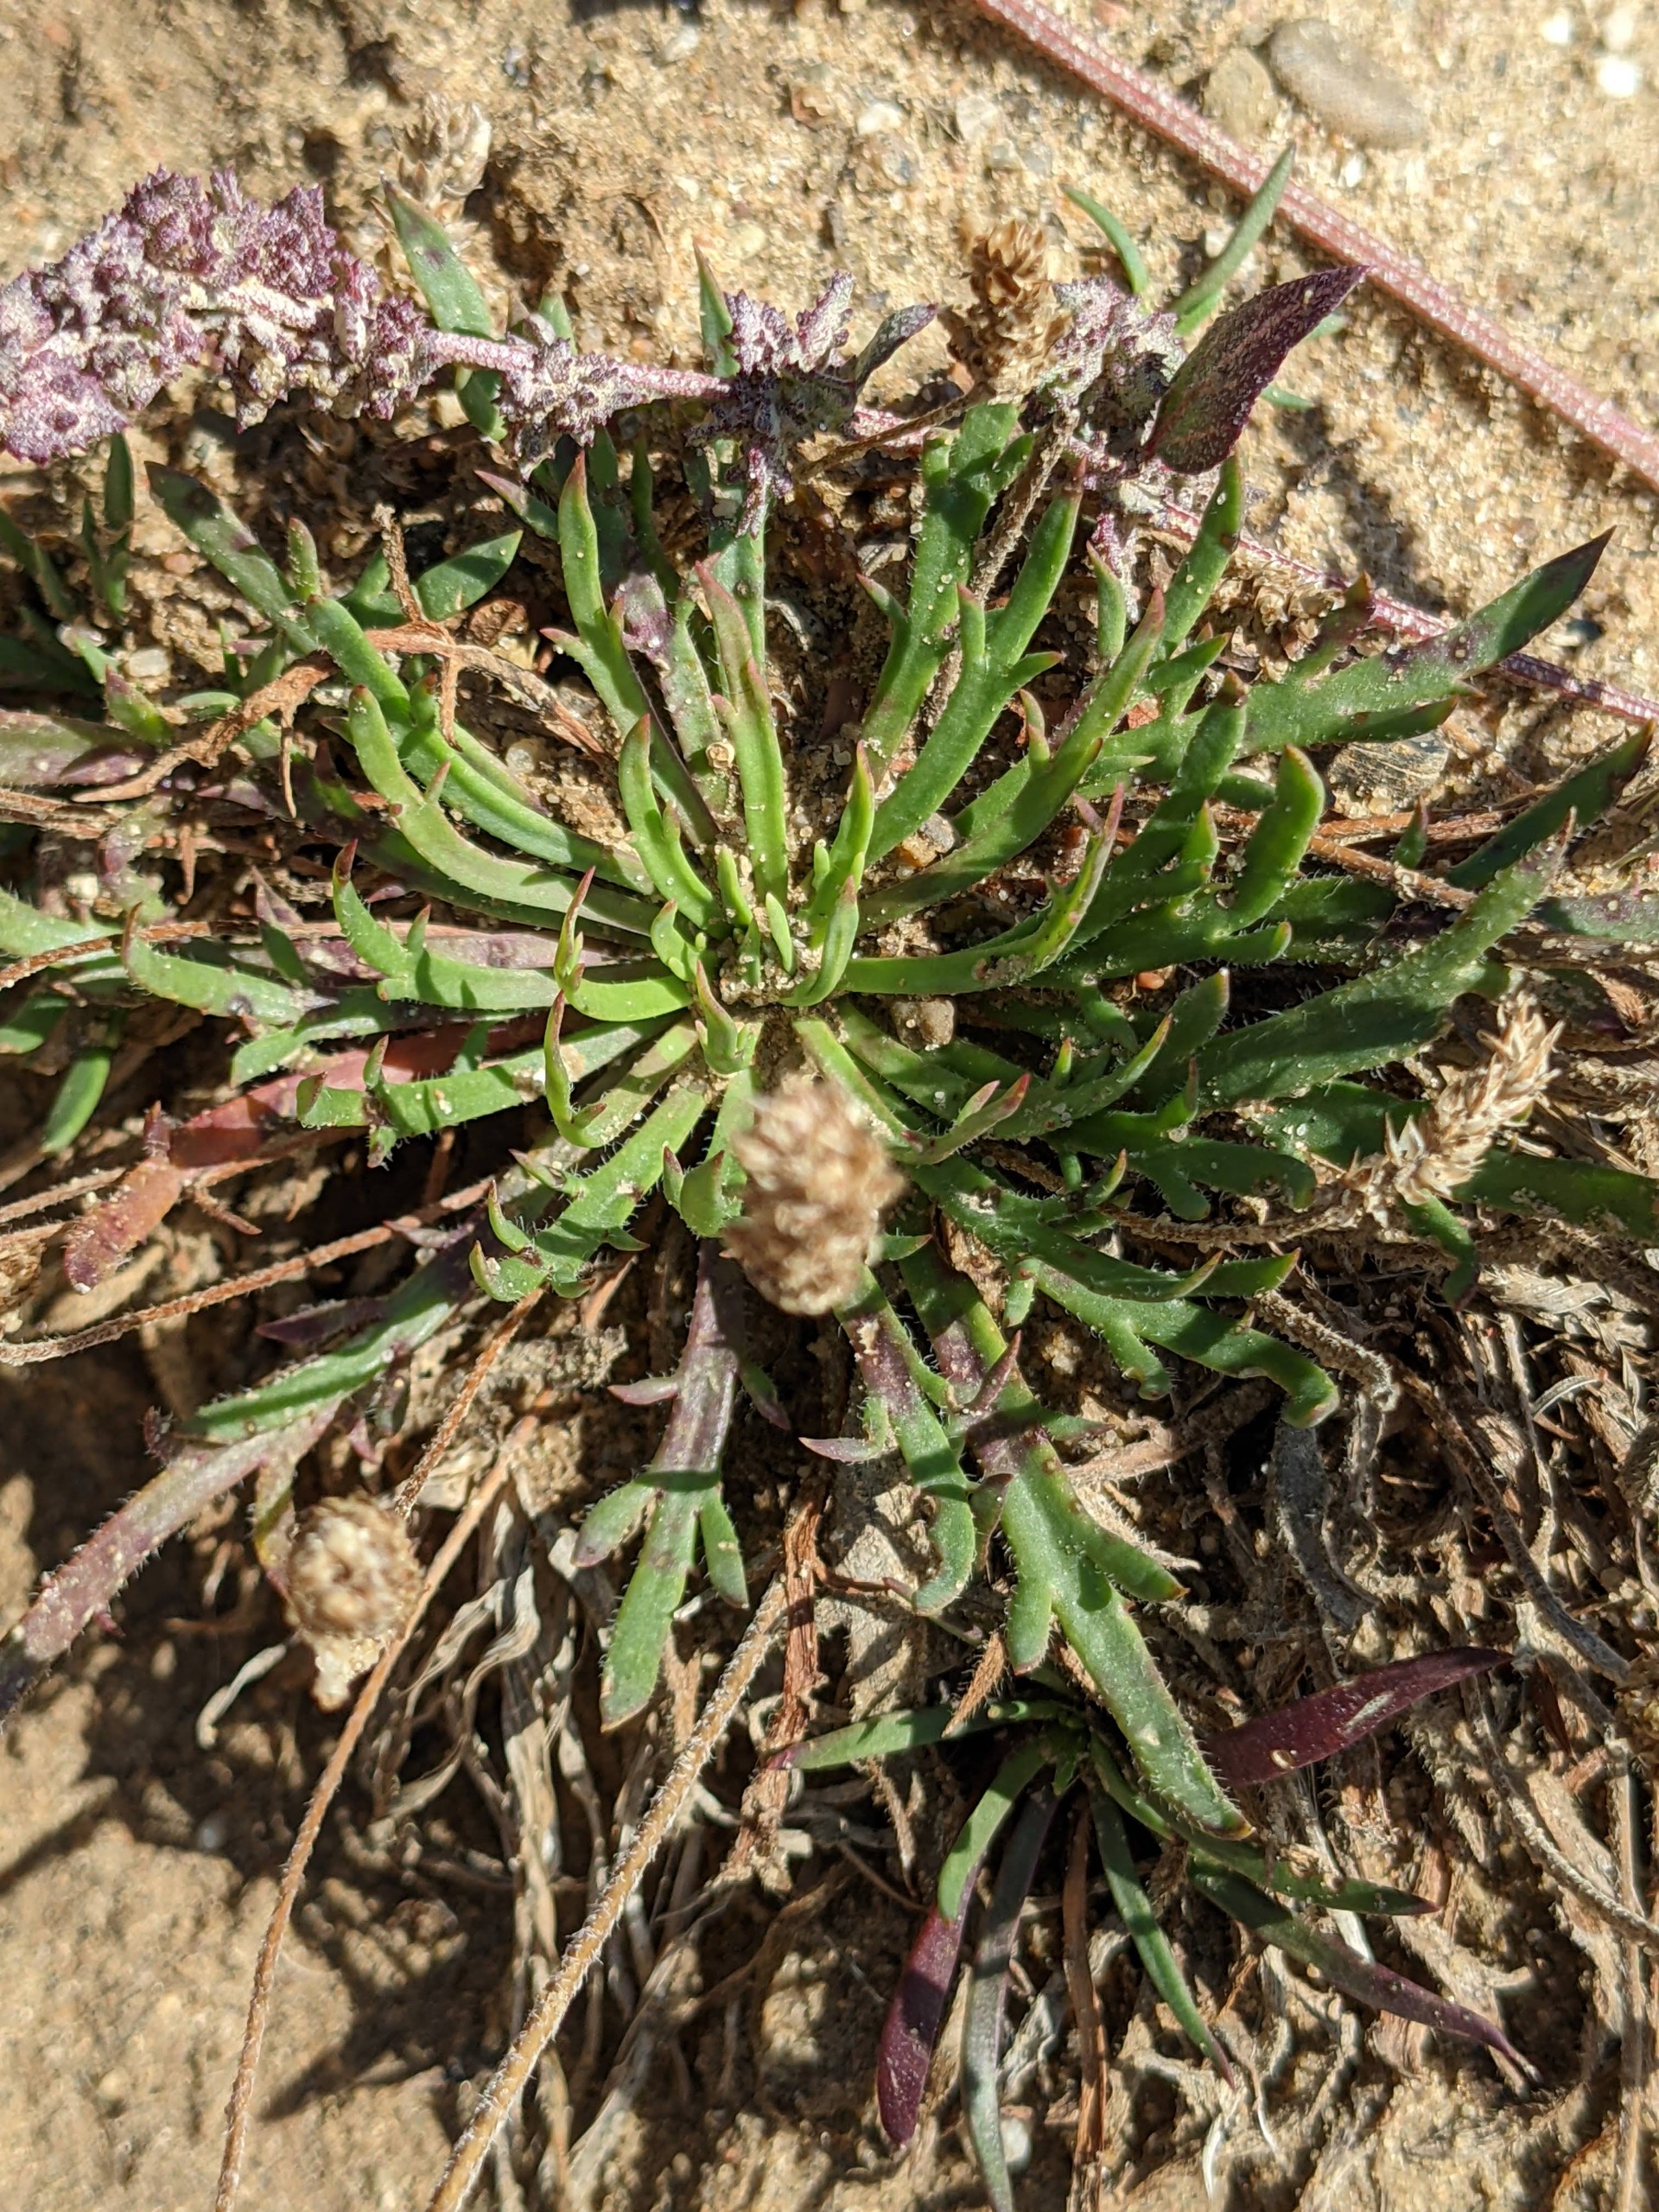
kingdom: Plantae
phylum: Tracheophyta
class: Magnoliopsida
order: Lamiales
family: Plantaginaceae
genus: Plantago
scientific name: Plantago coronopus
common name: Fliget vejbred
